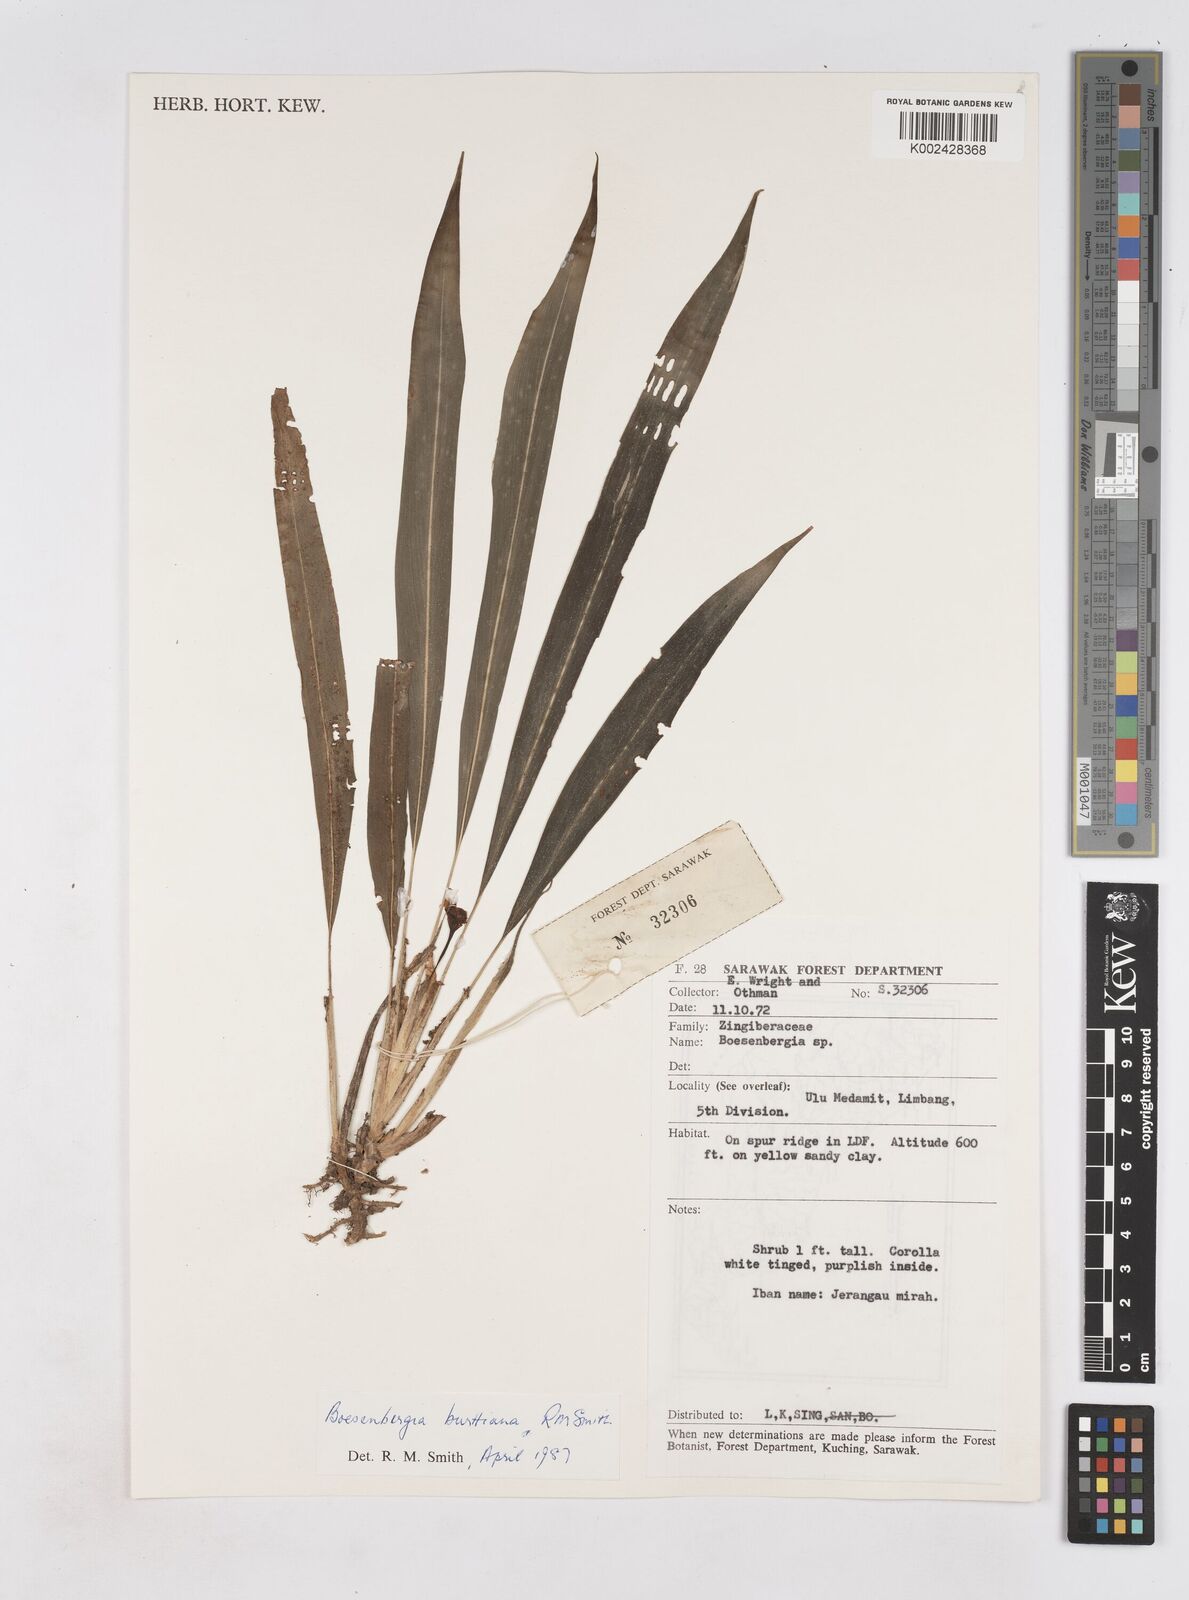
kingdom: Plantae
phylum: Tracheophyta
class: Liliopsida
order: Zingiberales
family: Zingiberaceae
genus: Boesenbergia
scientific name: Boesenbergia burttiana
